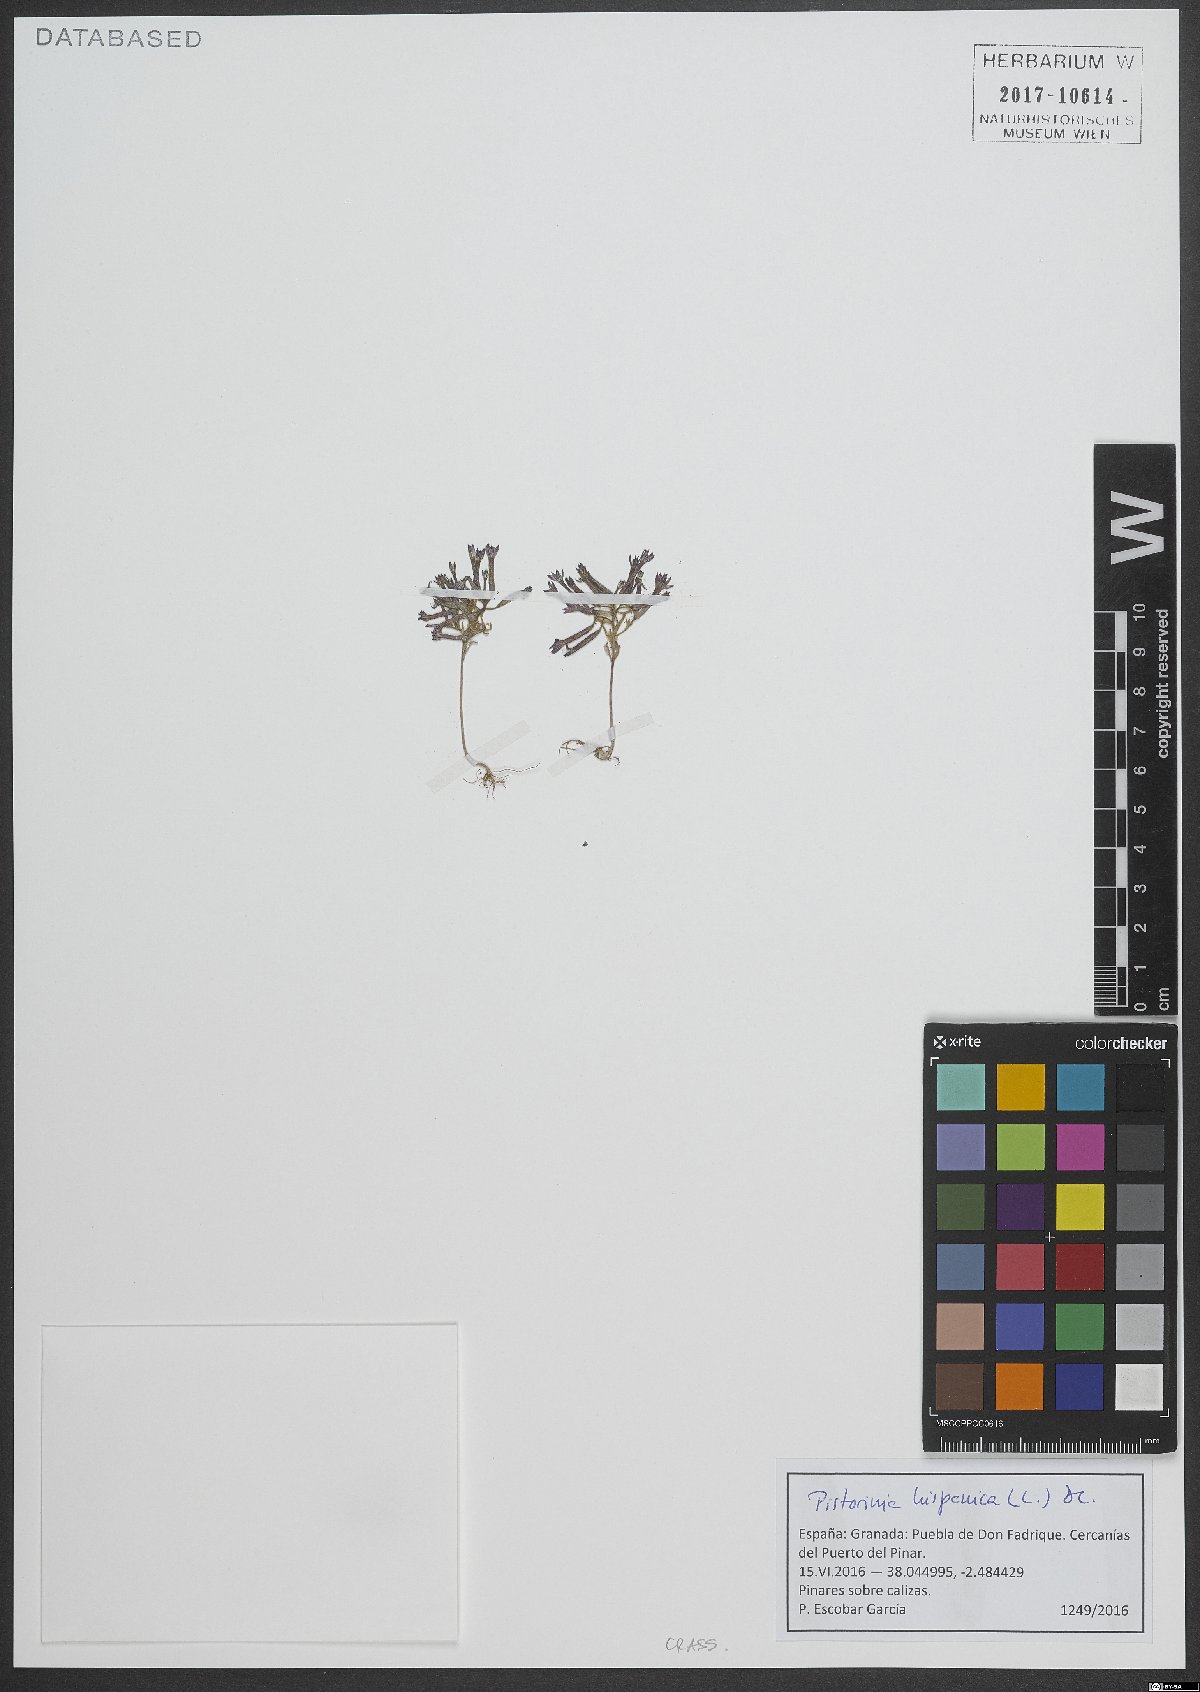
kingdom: Plantae
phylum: Tracheophyta
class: Magnoliopsida
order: Saxifragales
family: Crassulaceae
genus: Pistorinia
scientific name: Pistorinia hispanica
